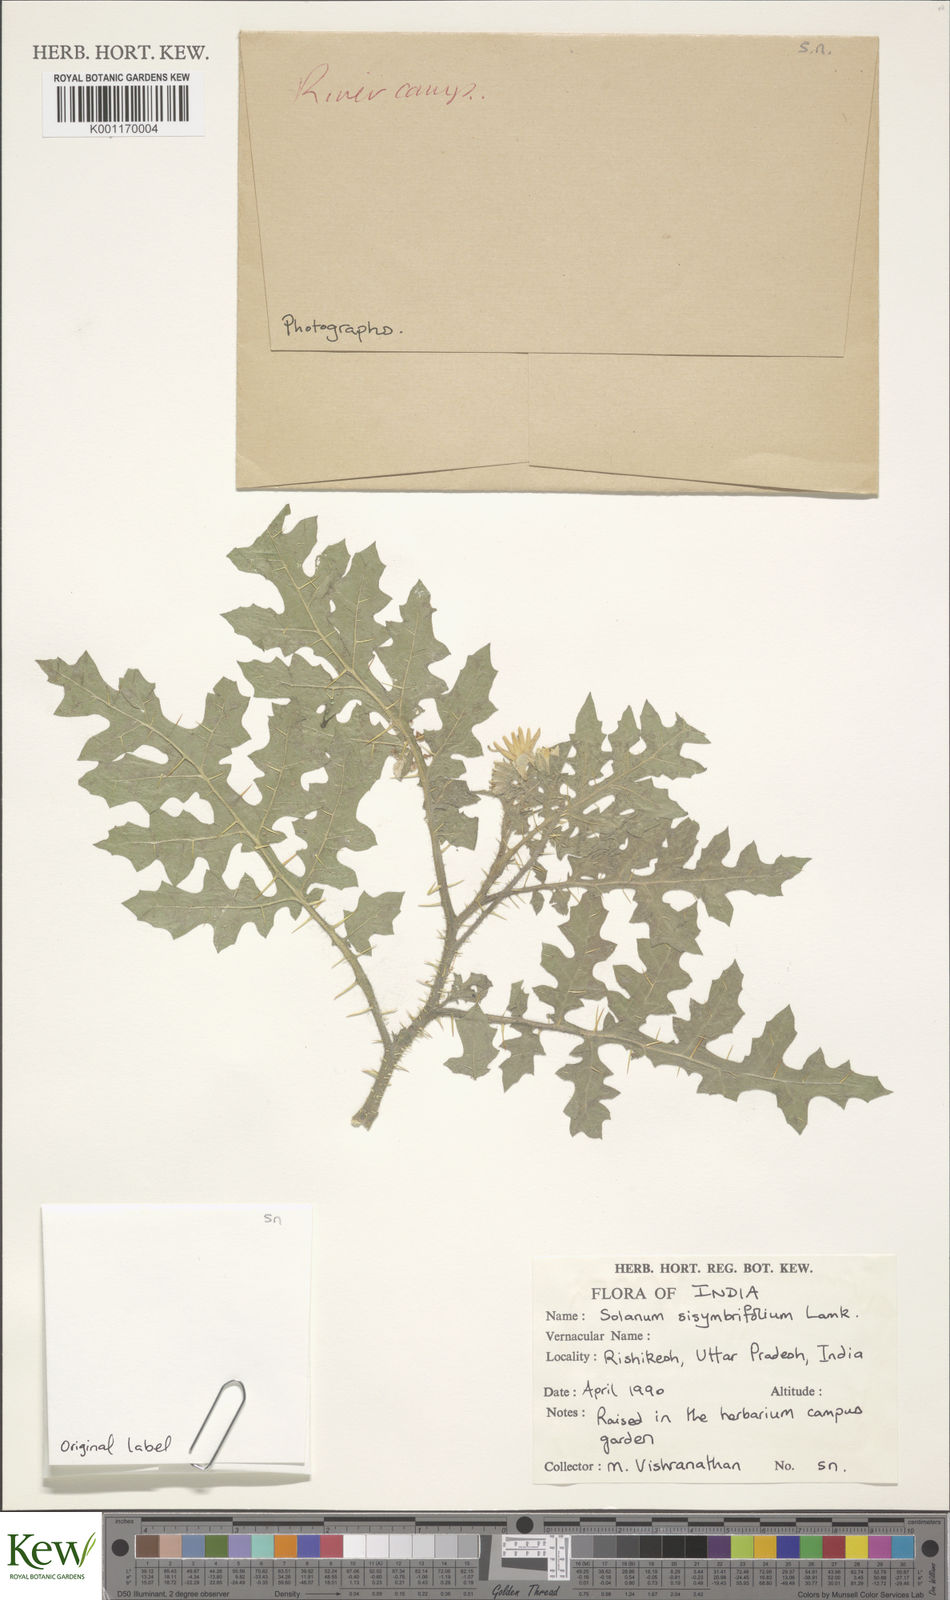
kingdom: Plantae
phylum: Tracheophyta
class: Magnoliopsida
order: Solanales
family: Solanaceae
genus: Solanum
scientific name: Solanum sisymbriifolium
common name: Red buffalo-bur
